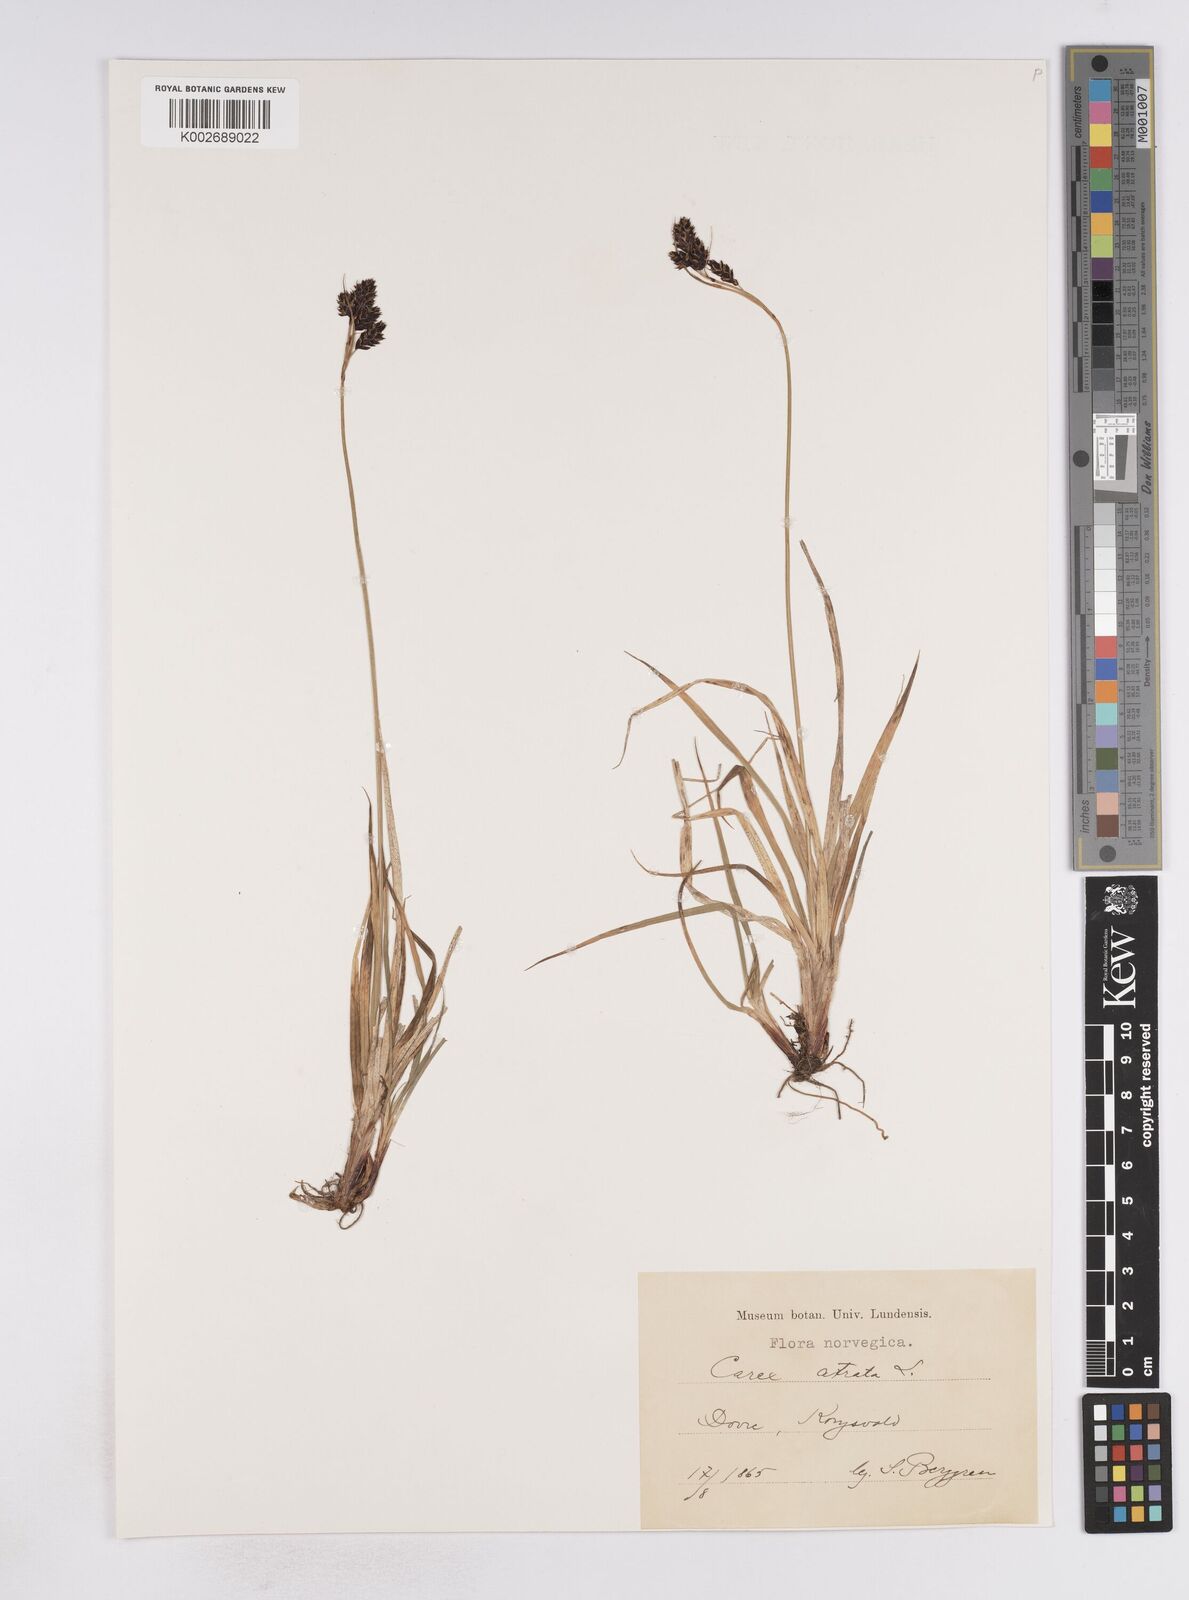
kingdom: Plantae
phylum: Tracheophyta
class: Liliopsida
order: Poales
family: Cyperaceae
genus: Carex
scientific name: Carex atrata
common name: Black alpine sedge
